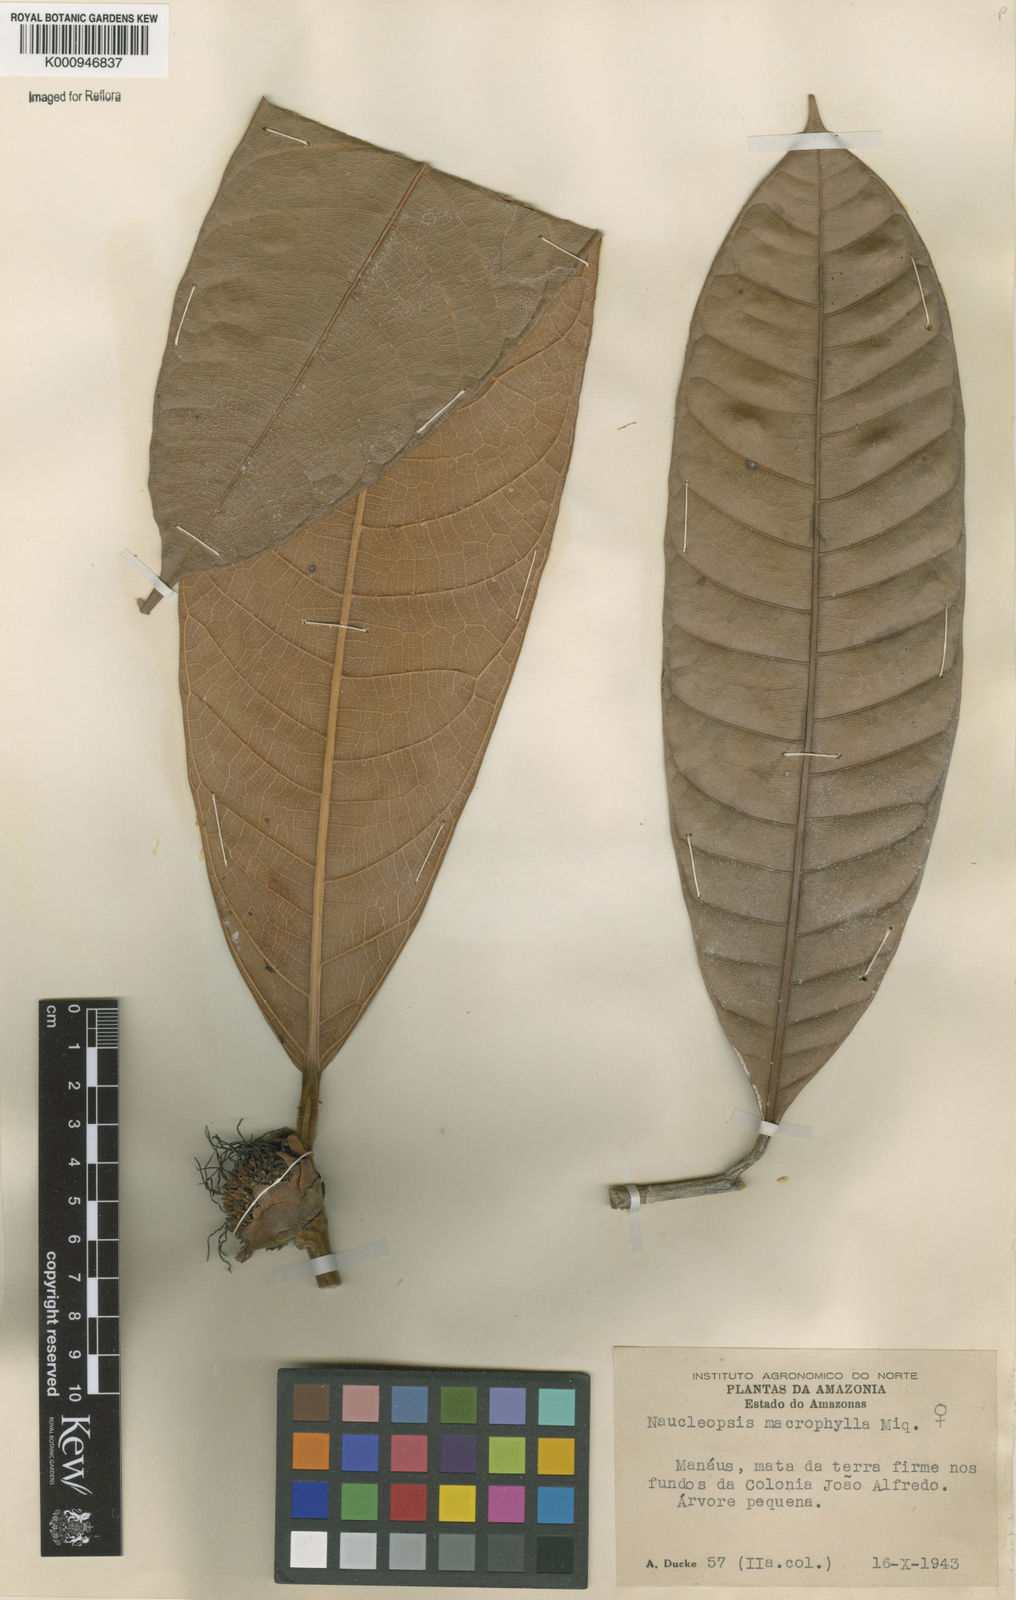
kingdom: Plantae
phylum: Tracheophyta
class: Magnoliopsida
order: Rosales
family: Moraceae
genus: Naucleopsis
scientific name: Naucleopsis macrophylla
